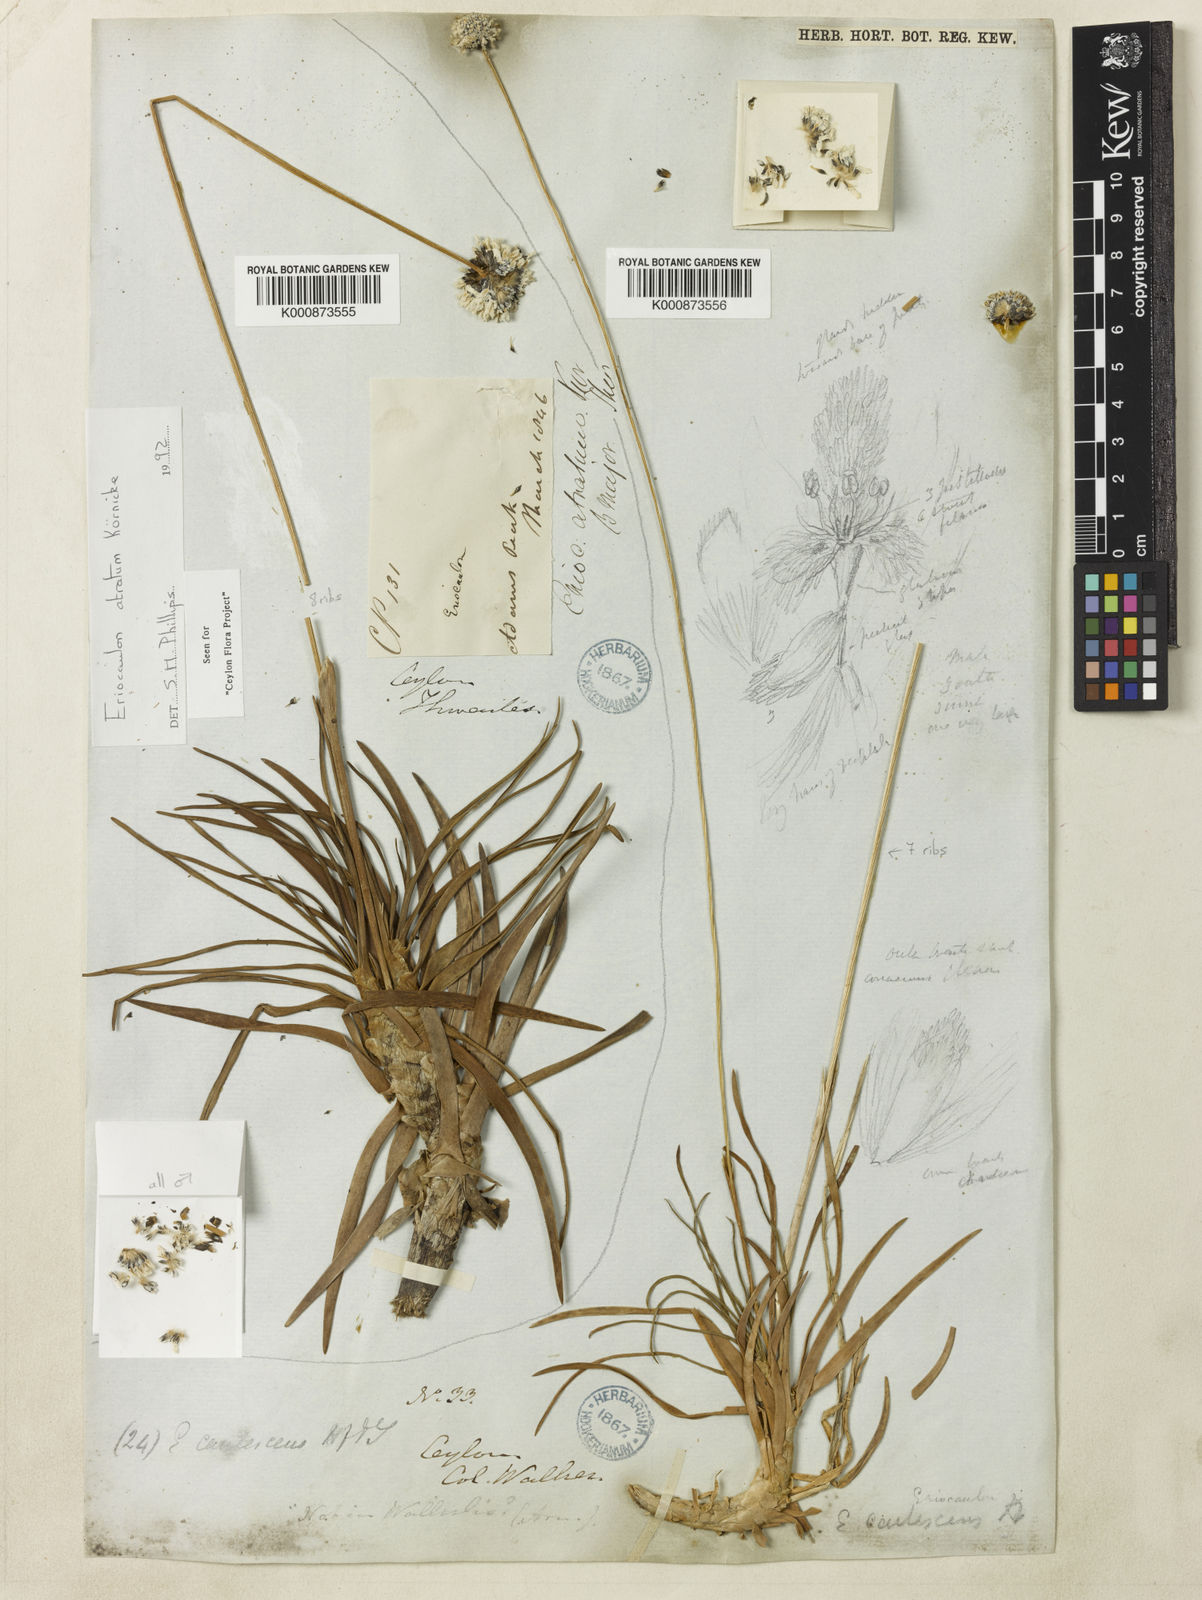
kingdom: Plantae
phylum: Tracheophyta
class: Liliopsida
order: Poales
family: Eriocaulaceae
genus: Eriocaulon
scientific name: Eriocaulon philippo-coburgii
